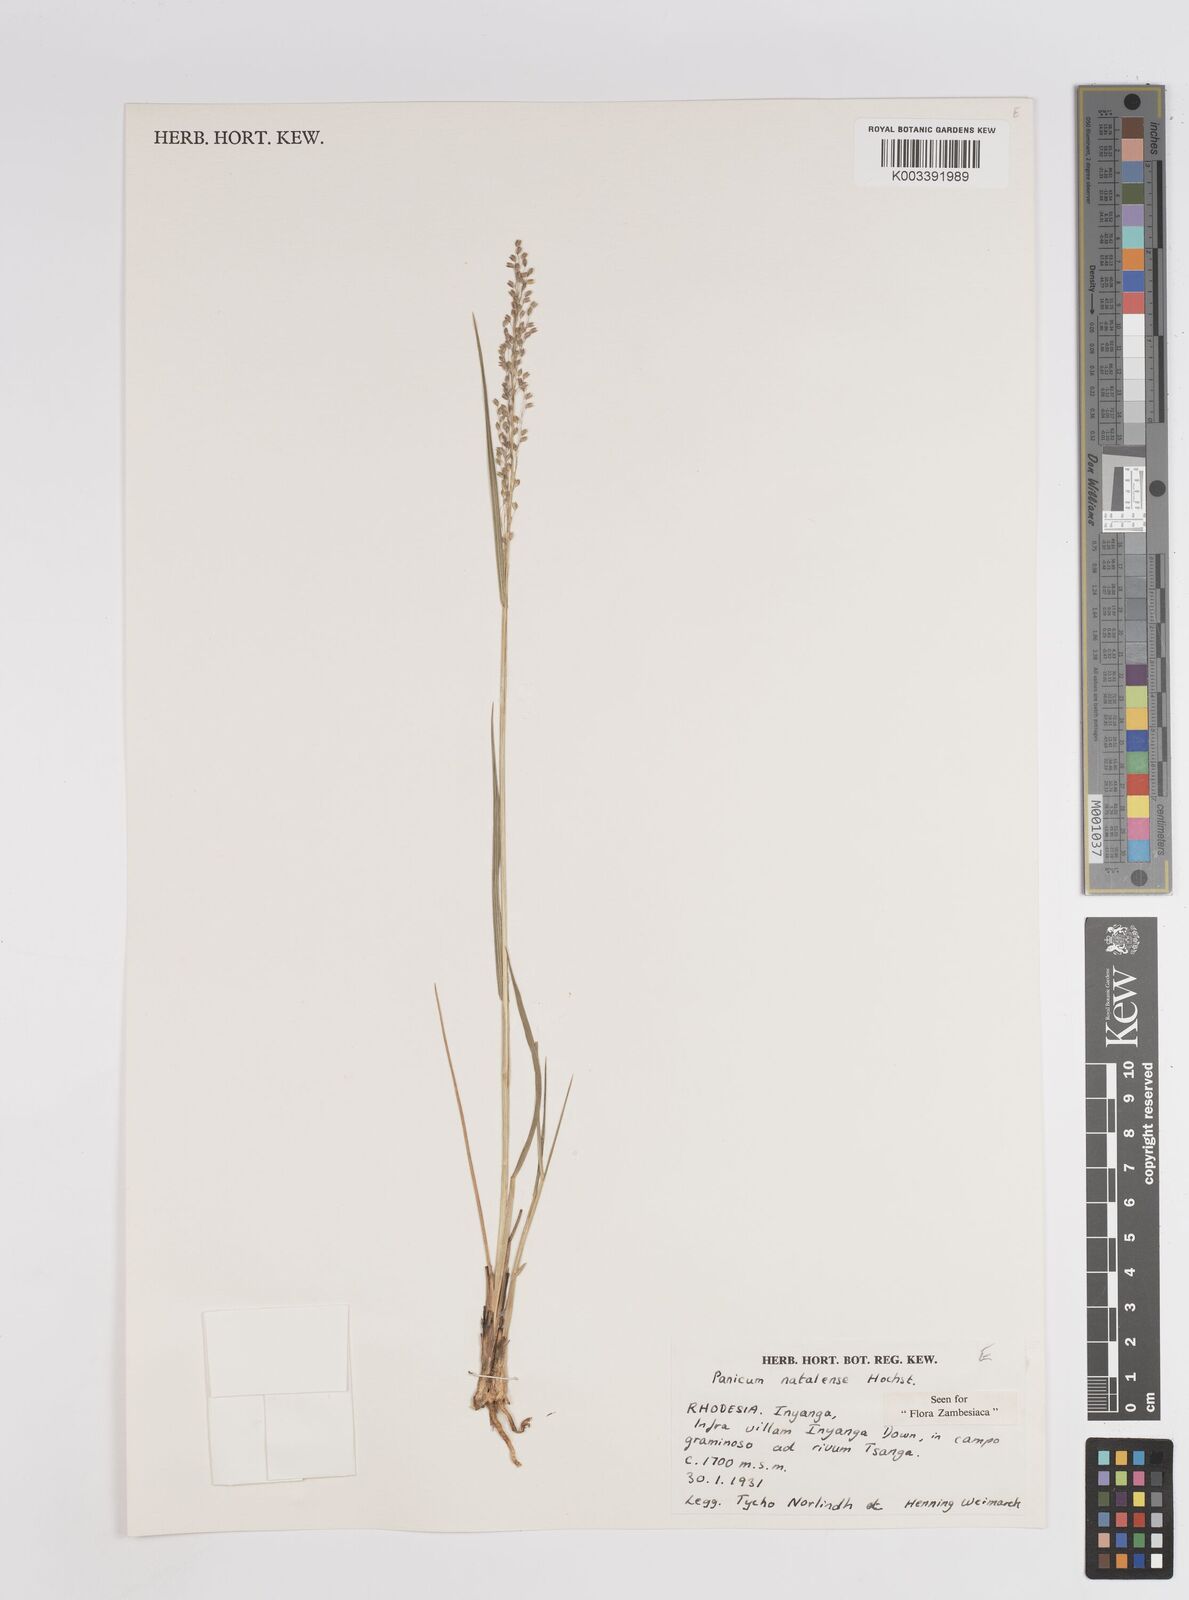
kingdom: Plantae
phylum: Tracheophyta
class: Liliopsida
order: Poales
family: Poaceae
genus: Trichanthecium
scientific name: Trichanthecium natalense
